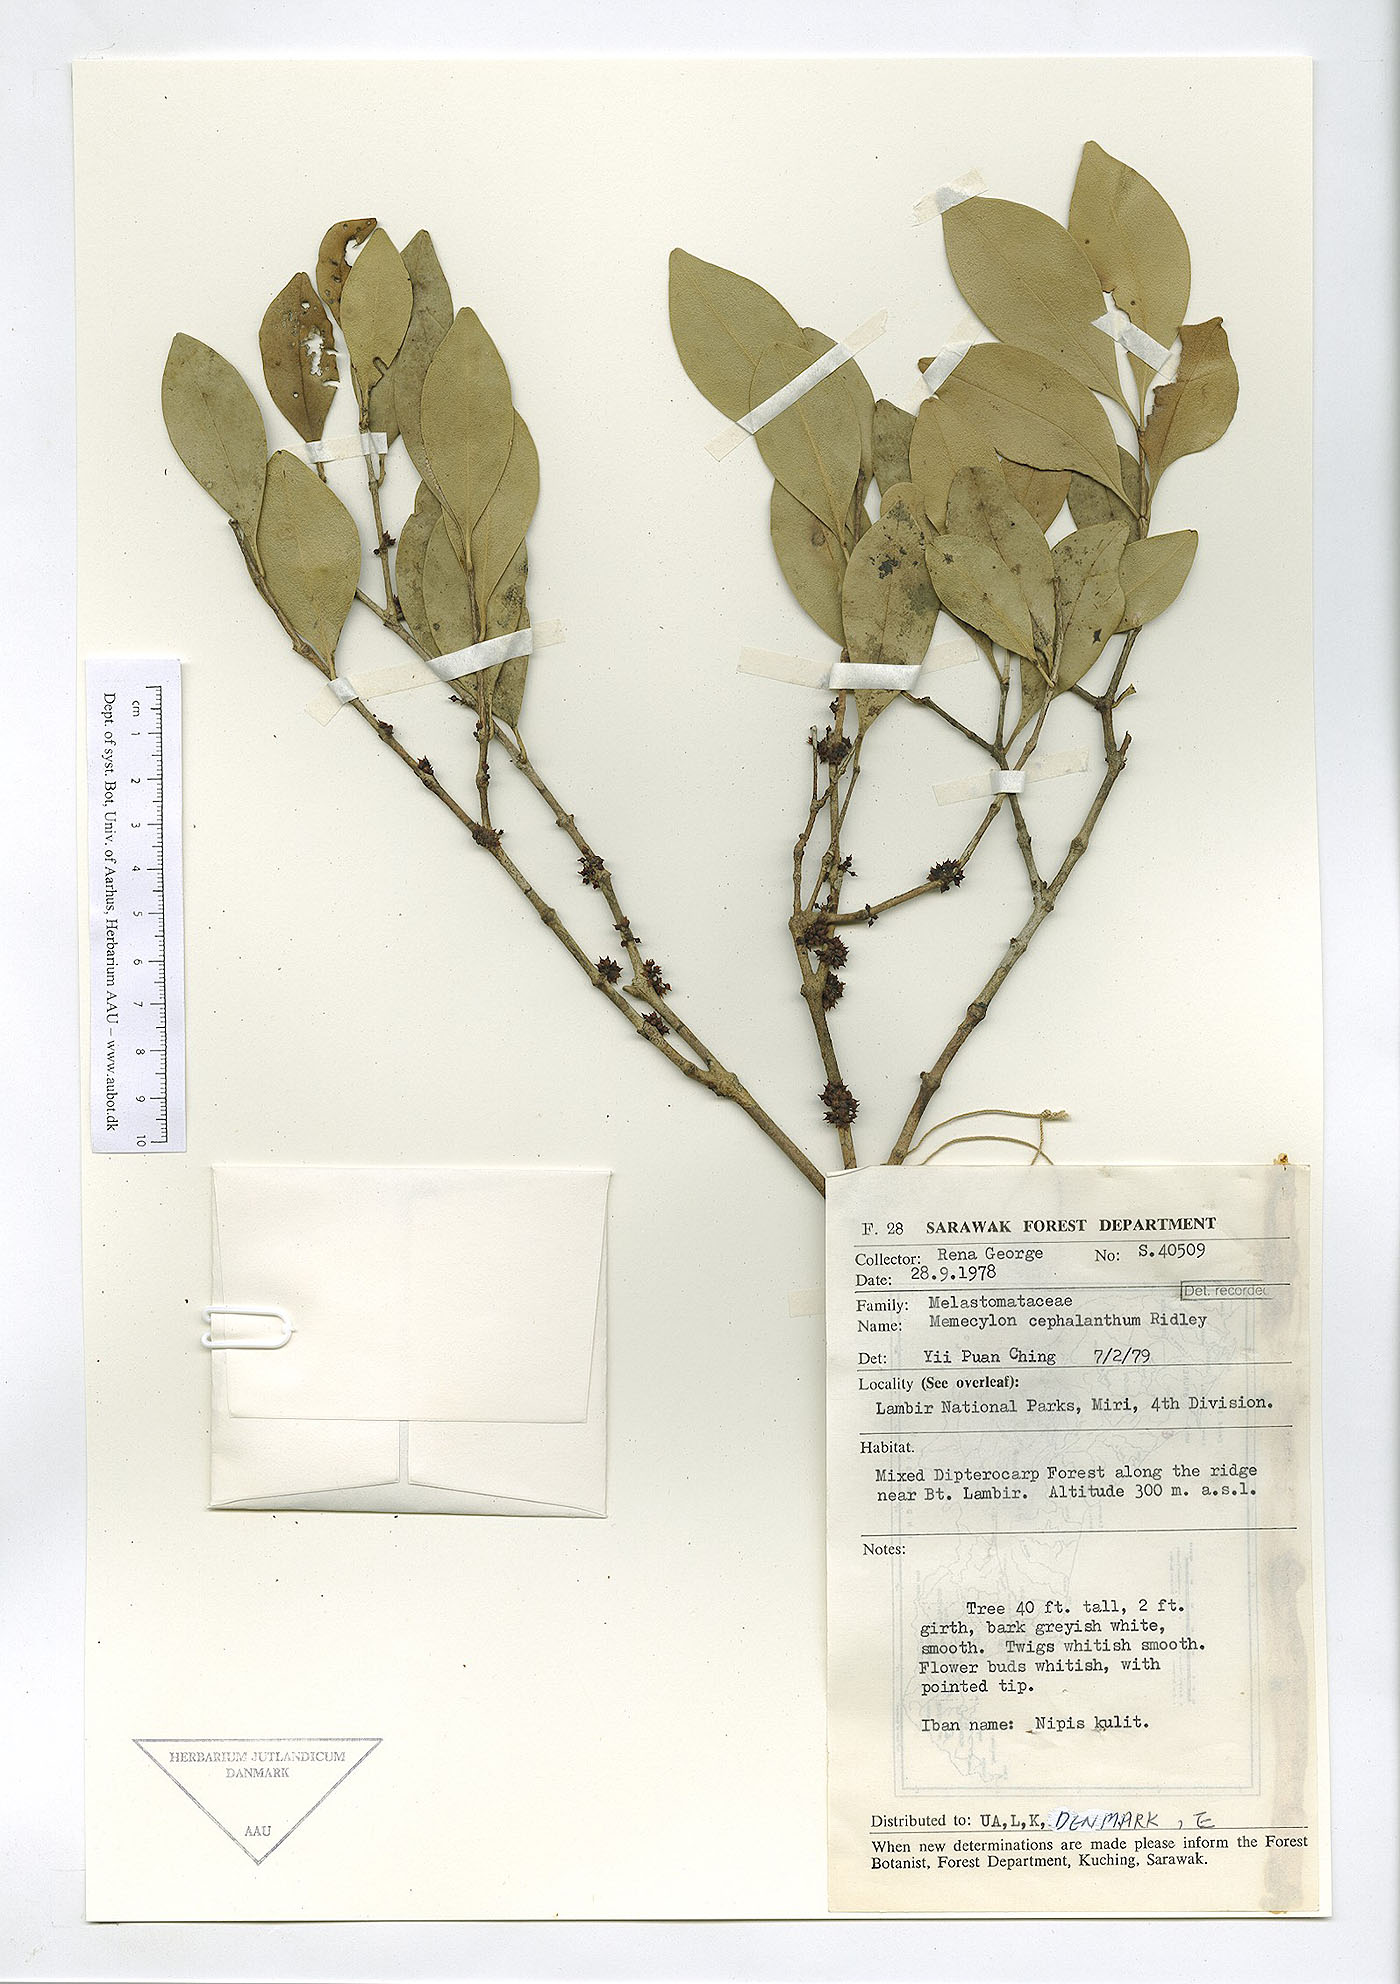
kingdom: Plantae
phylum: Tracheophyta
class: Magnoliopsida
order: Myrtales
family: Melastomataceae
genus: Memecylon
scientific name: Memecylon campanulatum
